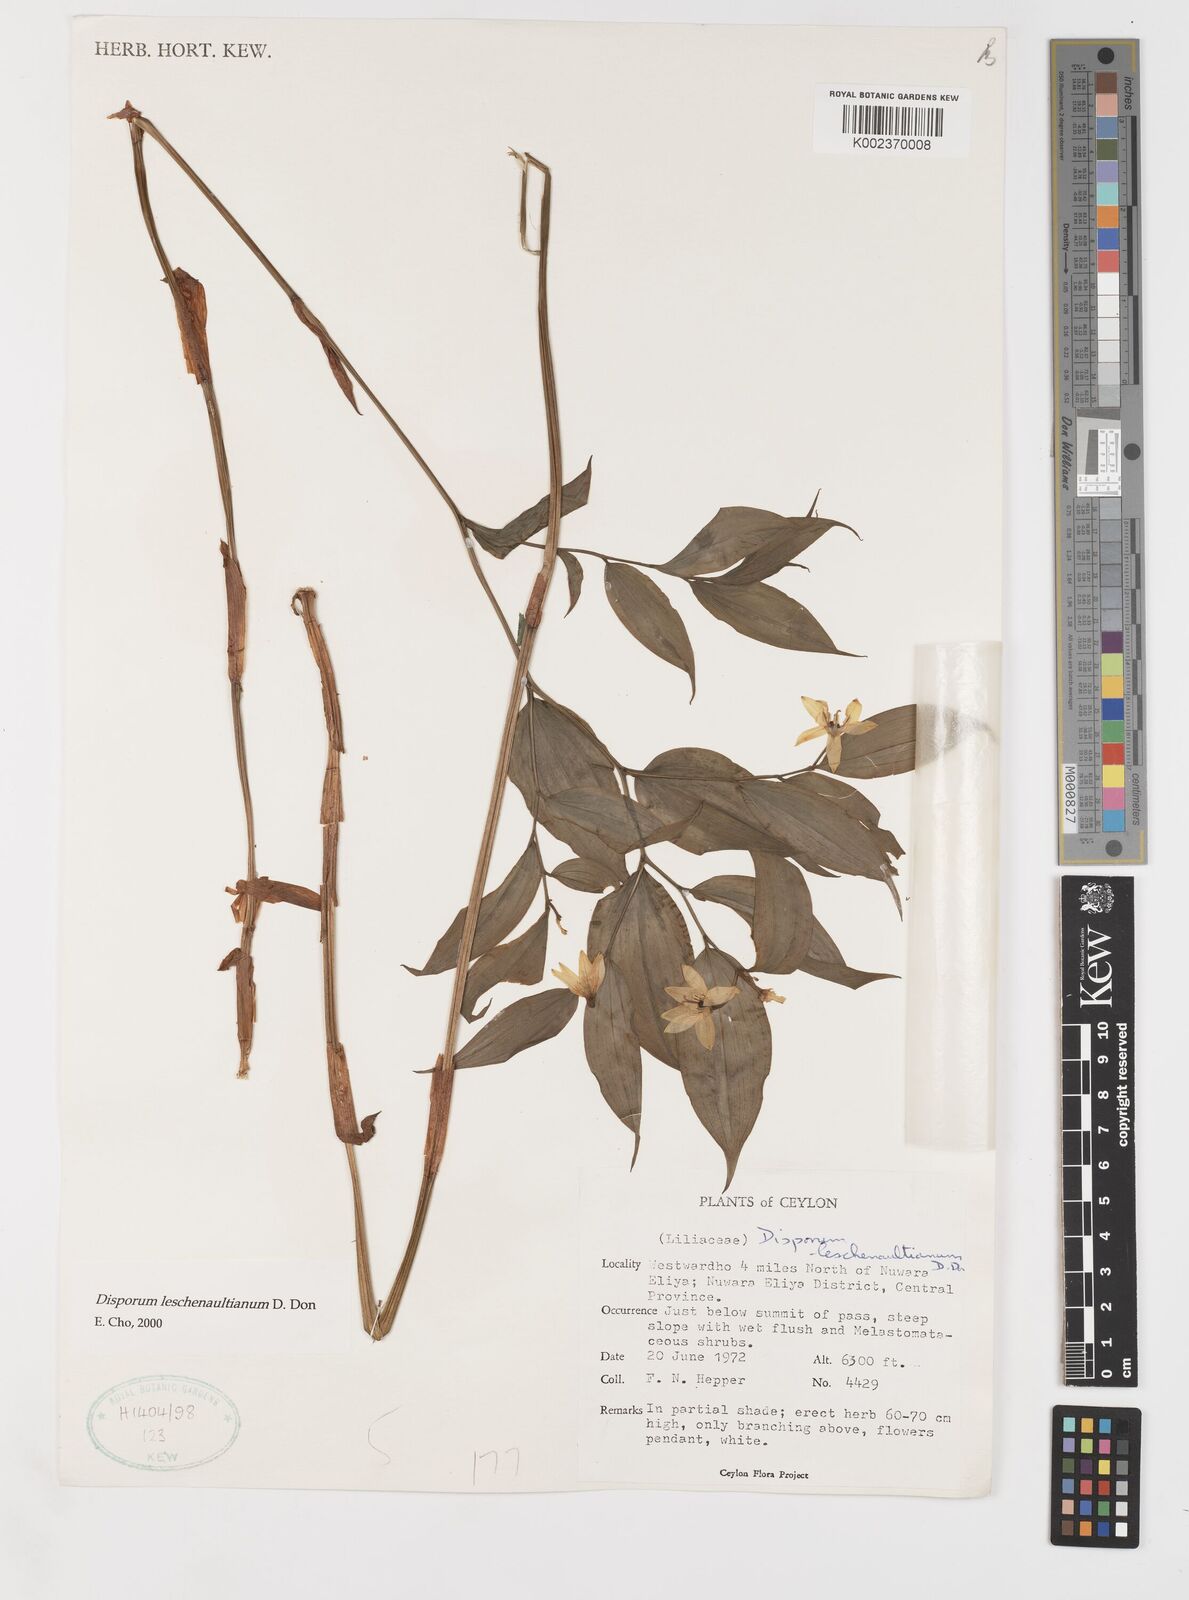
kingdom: Plantae
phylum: Tracheophyta
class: Liliopsida
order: Liliales
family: Colchicaceae
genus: Disporum
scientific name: Disporum cantoniense
